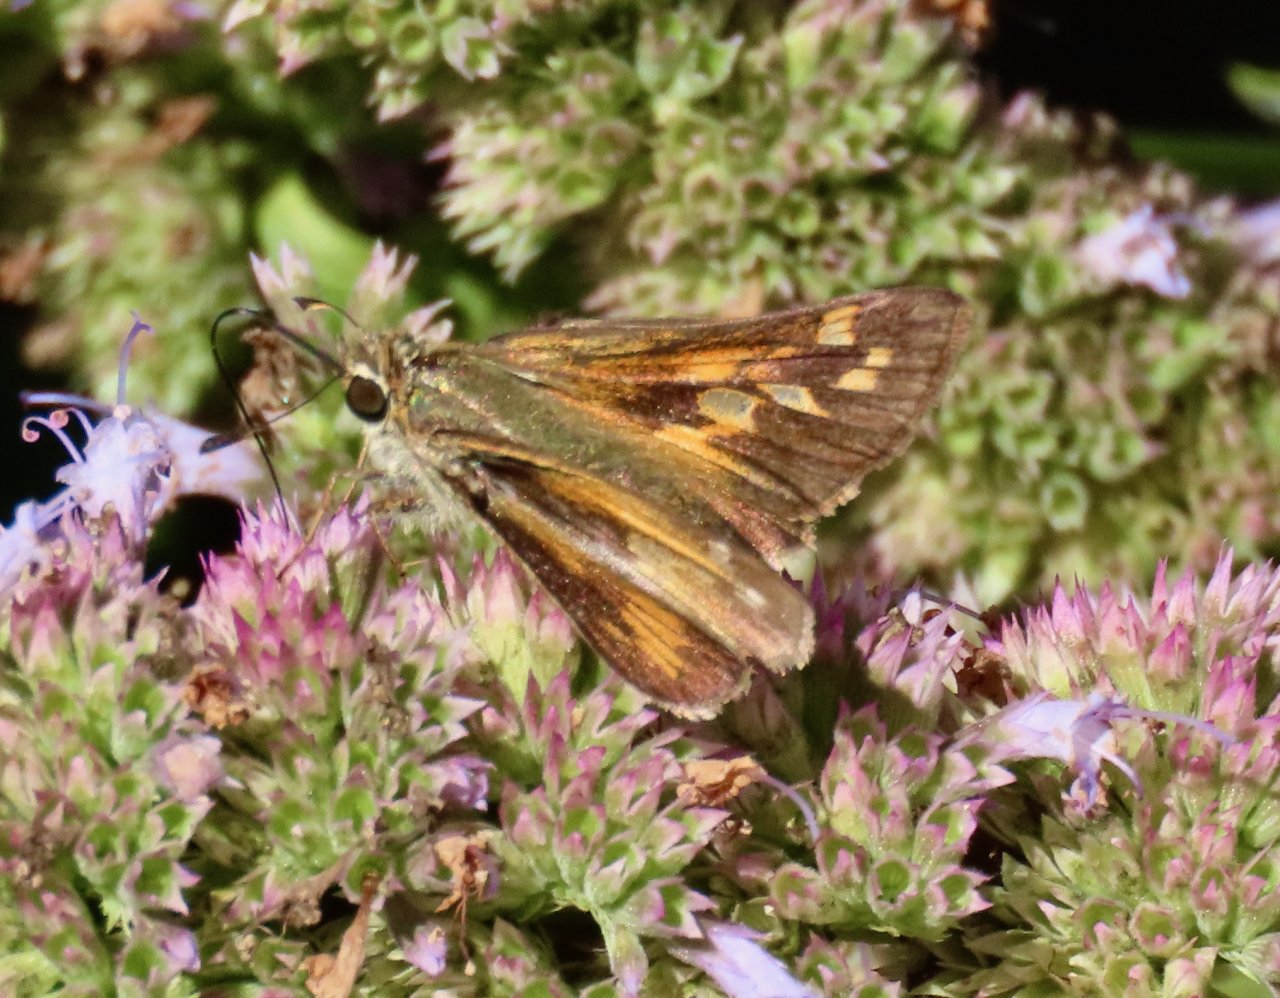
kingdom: Animalia
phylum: Arthropoda
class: Insecta
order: Lepidoptera
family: Hesperiidae
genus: Atalopedes
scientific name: Atalopedes campestris
